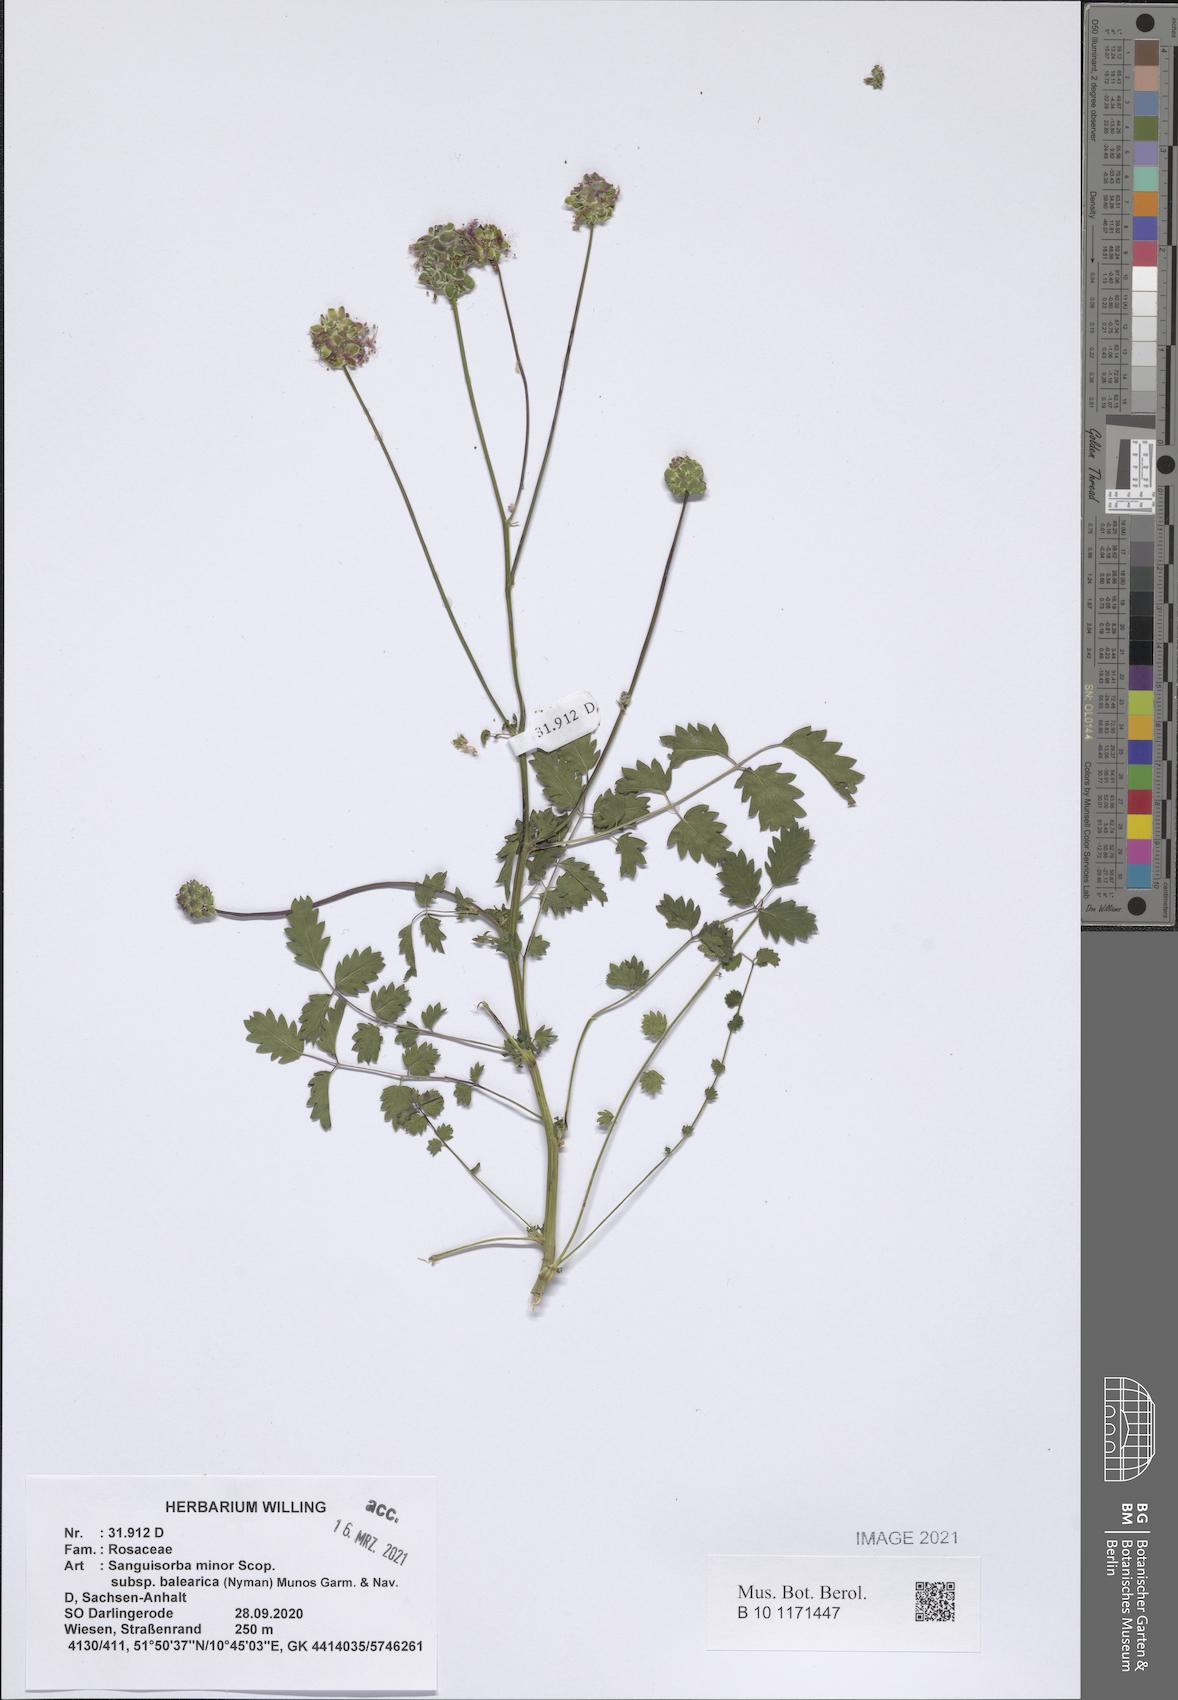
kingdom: Plantae
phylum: Tracheophyta
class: Magnoliopsida
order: Rosales
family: Rosaceae
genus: Poterium
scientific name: Poterium sanguisorba
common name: Salad burnet
